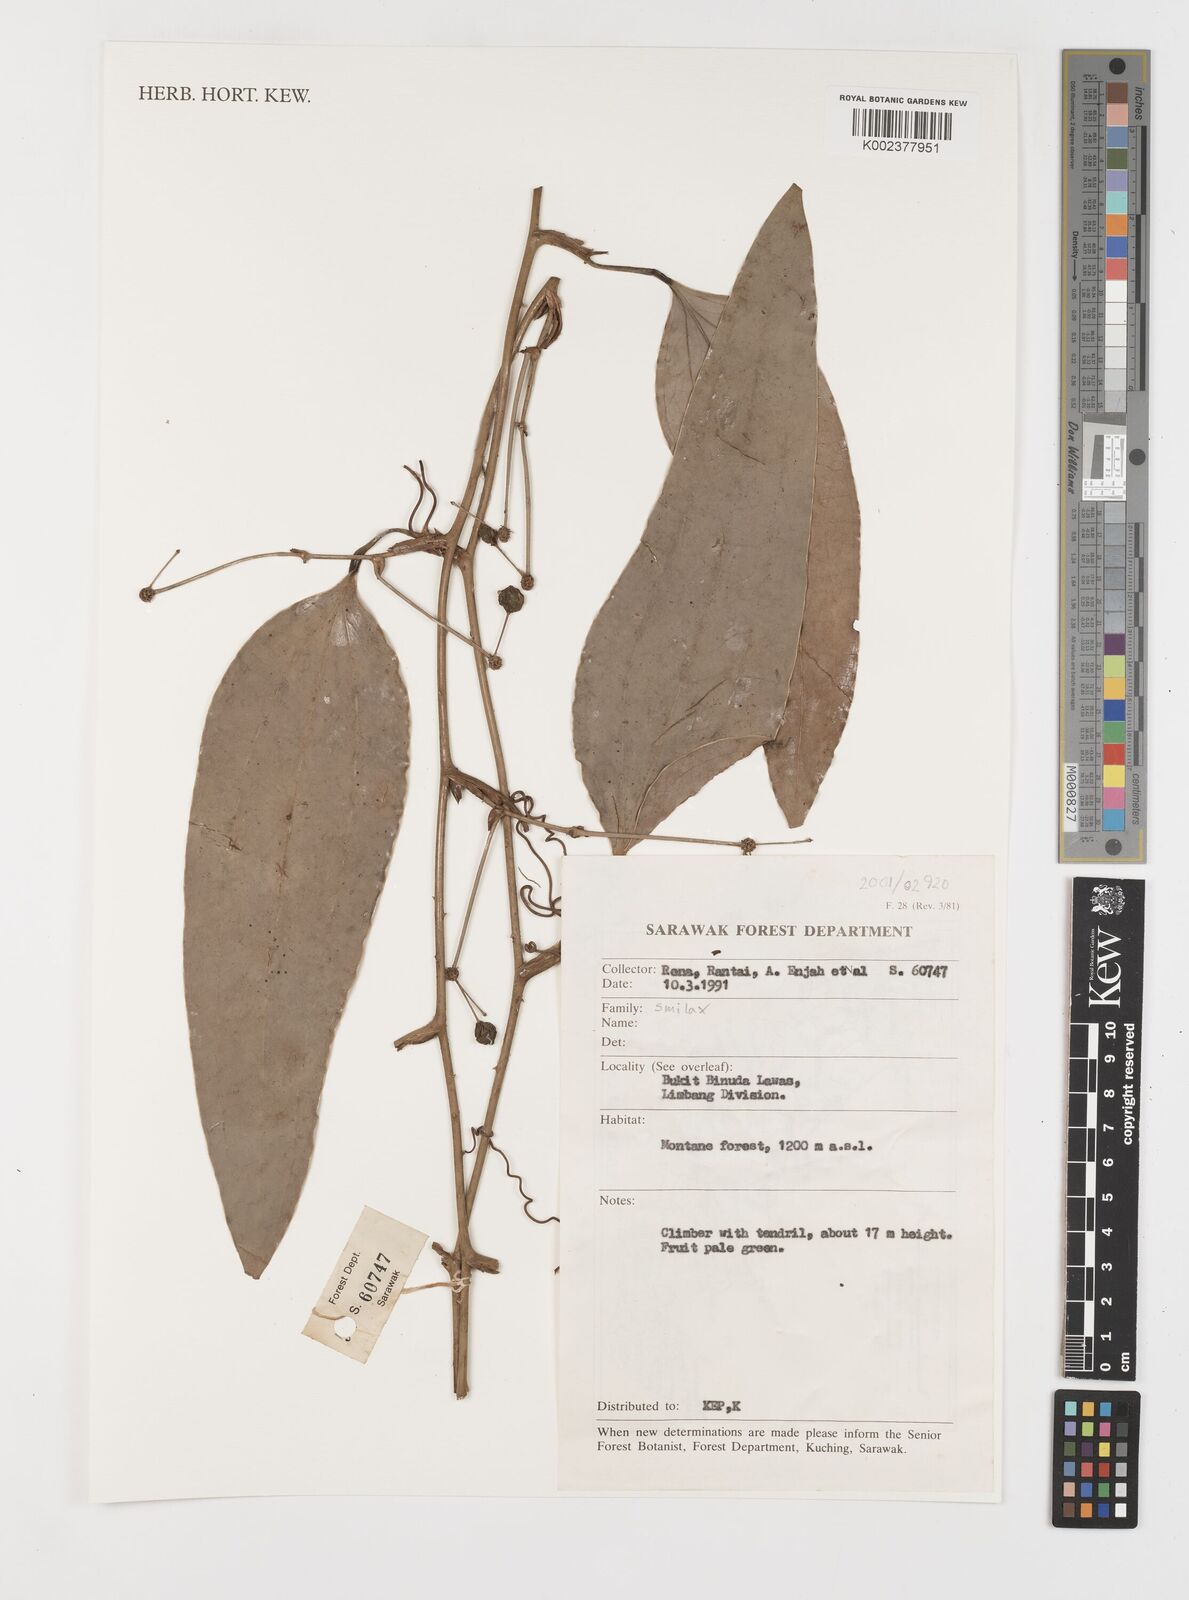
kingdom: Plantae
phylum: Tracheophyta
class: Liliopsida
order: Liliales
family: Smilacaceae
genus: Smilax
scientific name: Smilax
